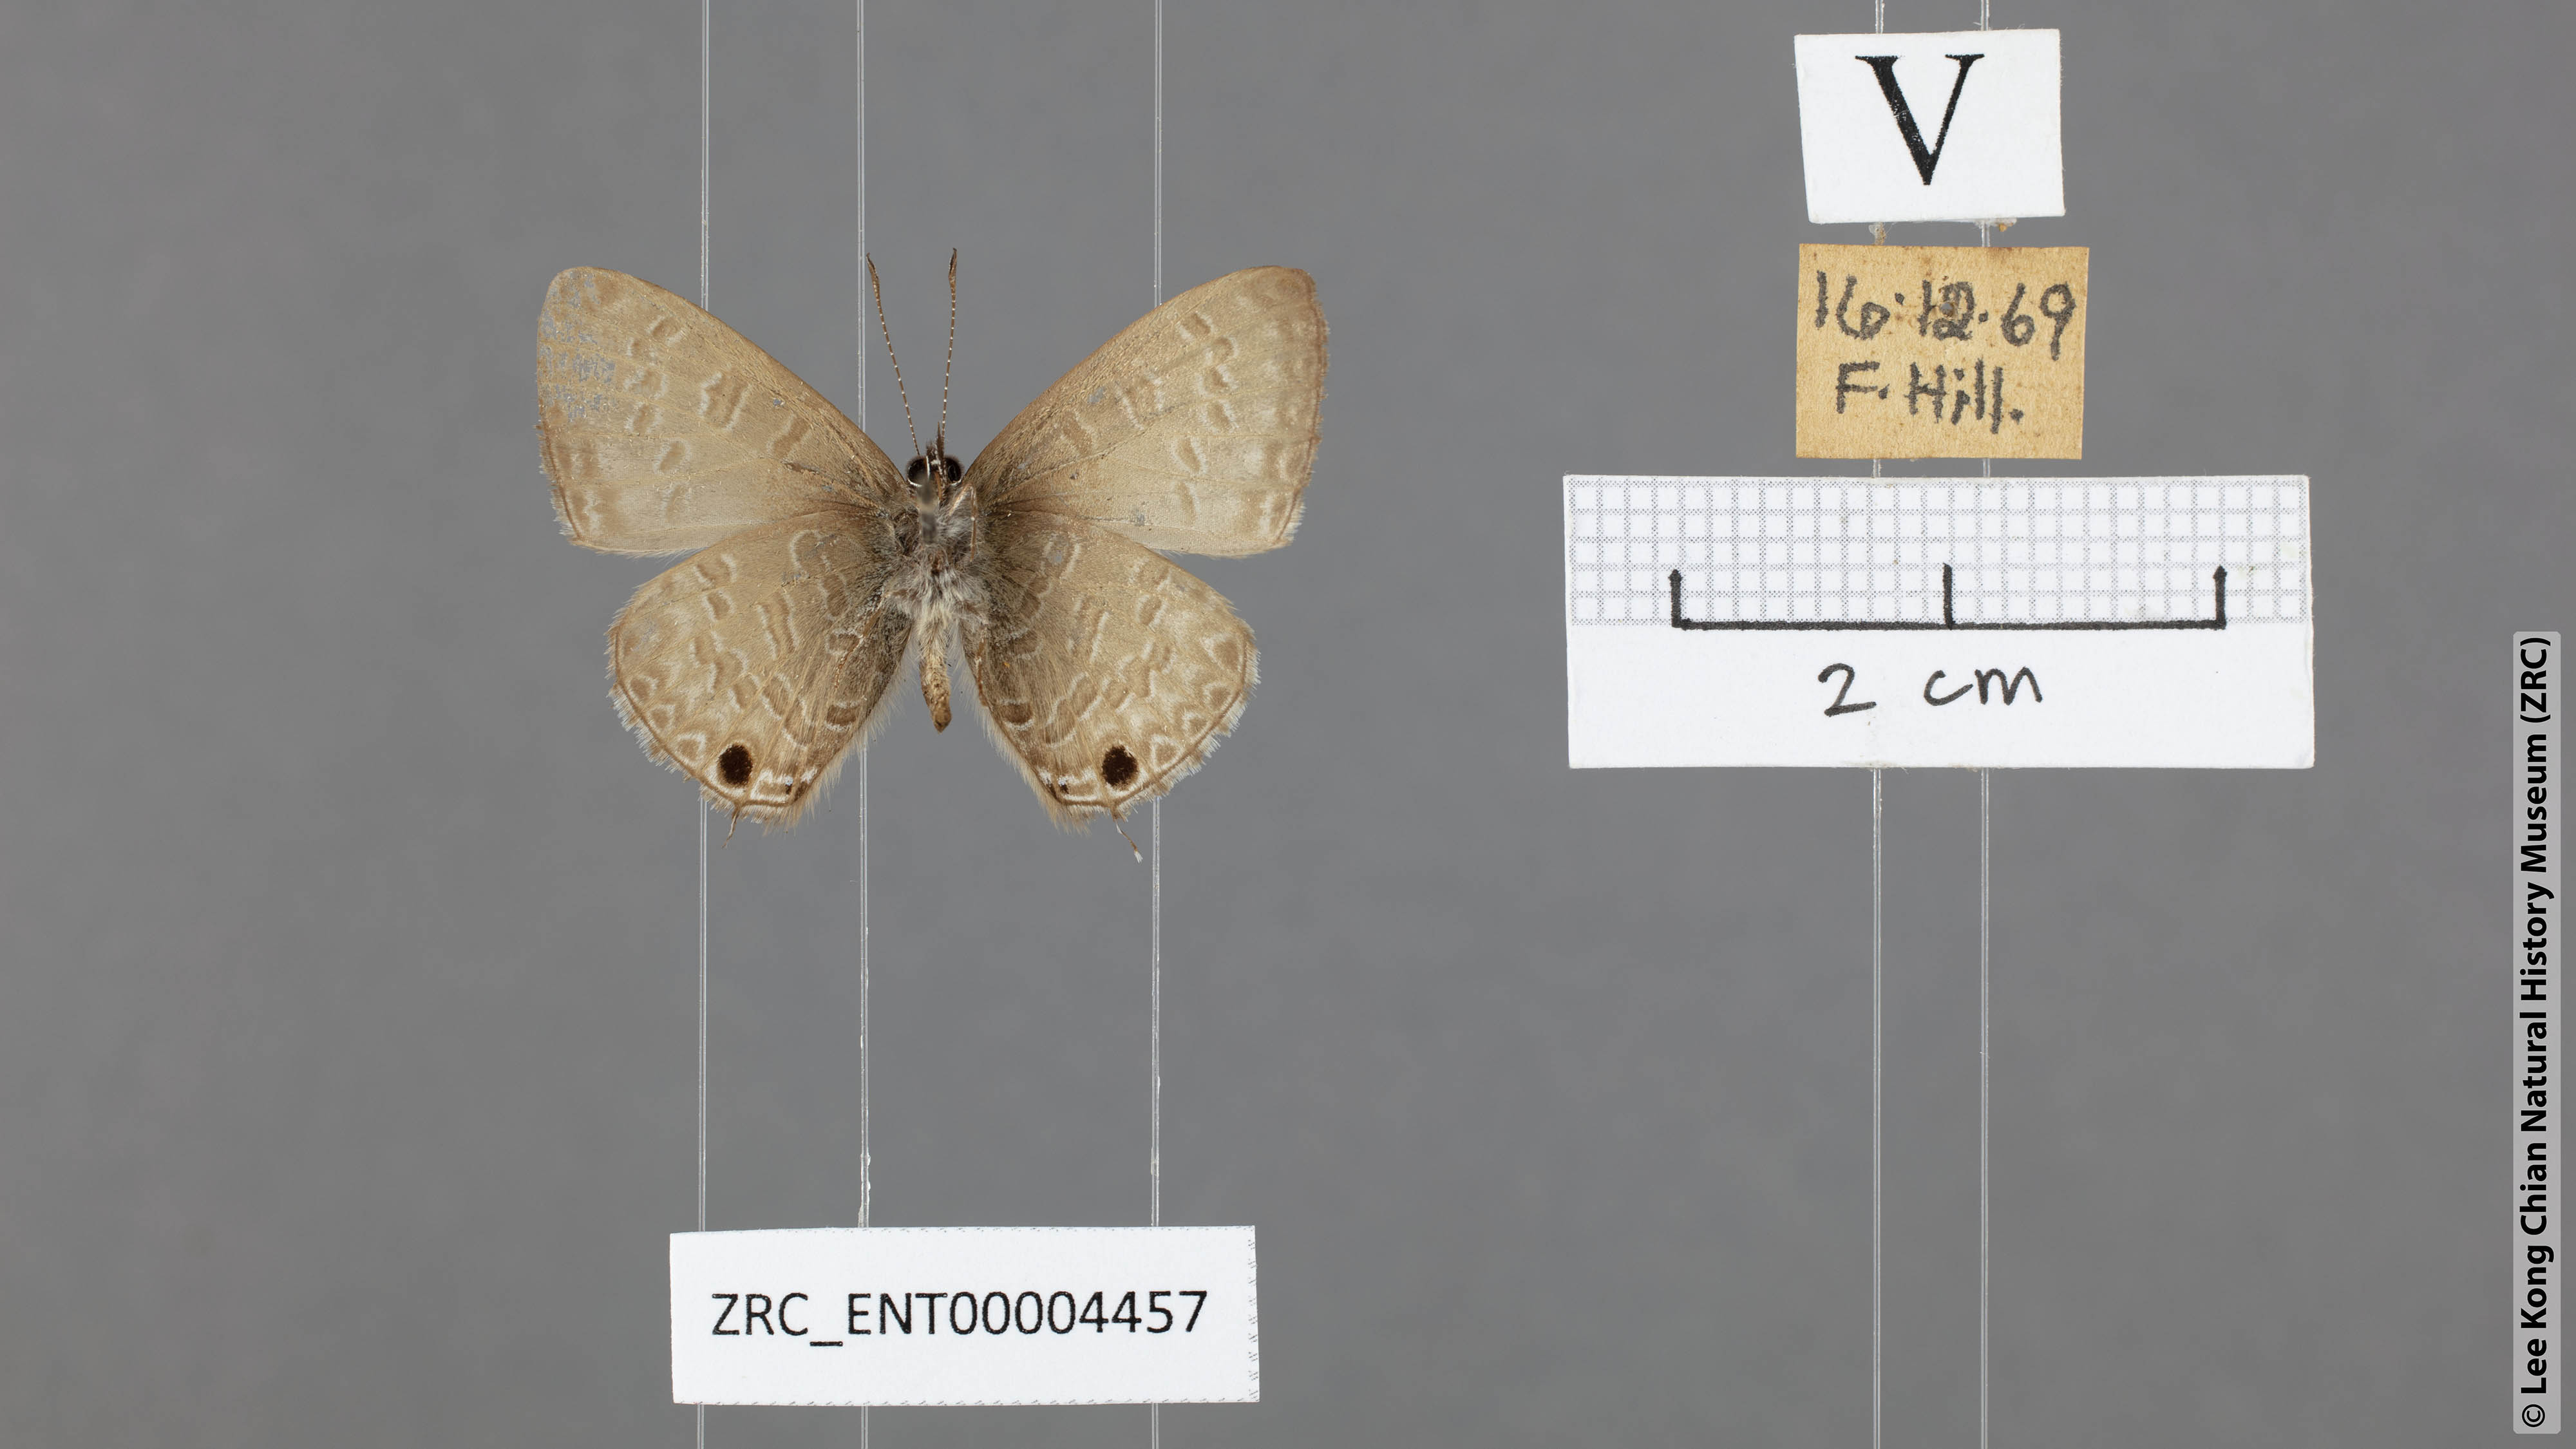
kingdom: Animalia
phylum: Arthropoda
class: Insecta
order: Lepidoptera
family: Lycaenidae
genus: Prosotas
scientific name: Prosotas nelides
